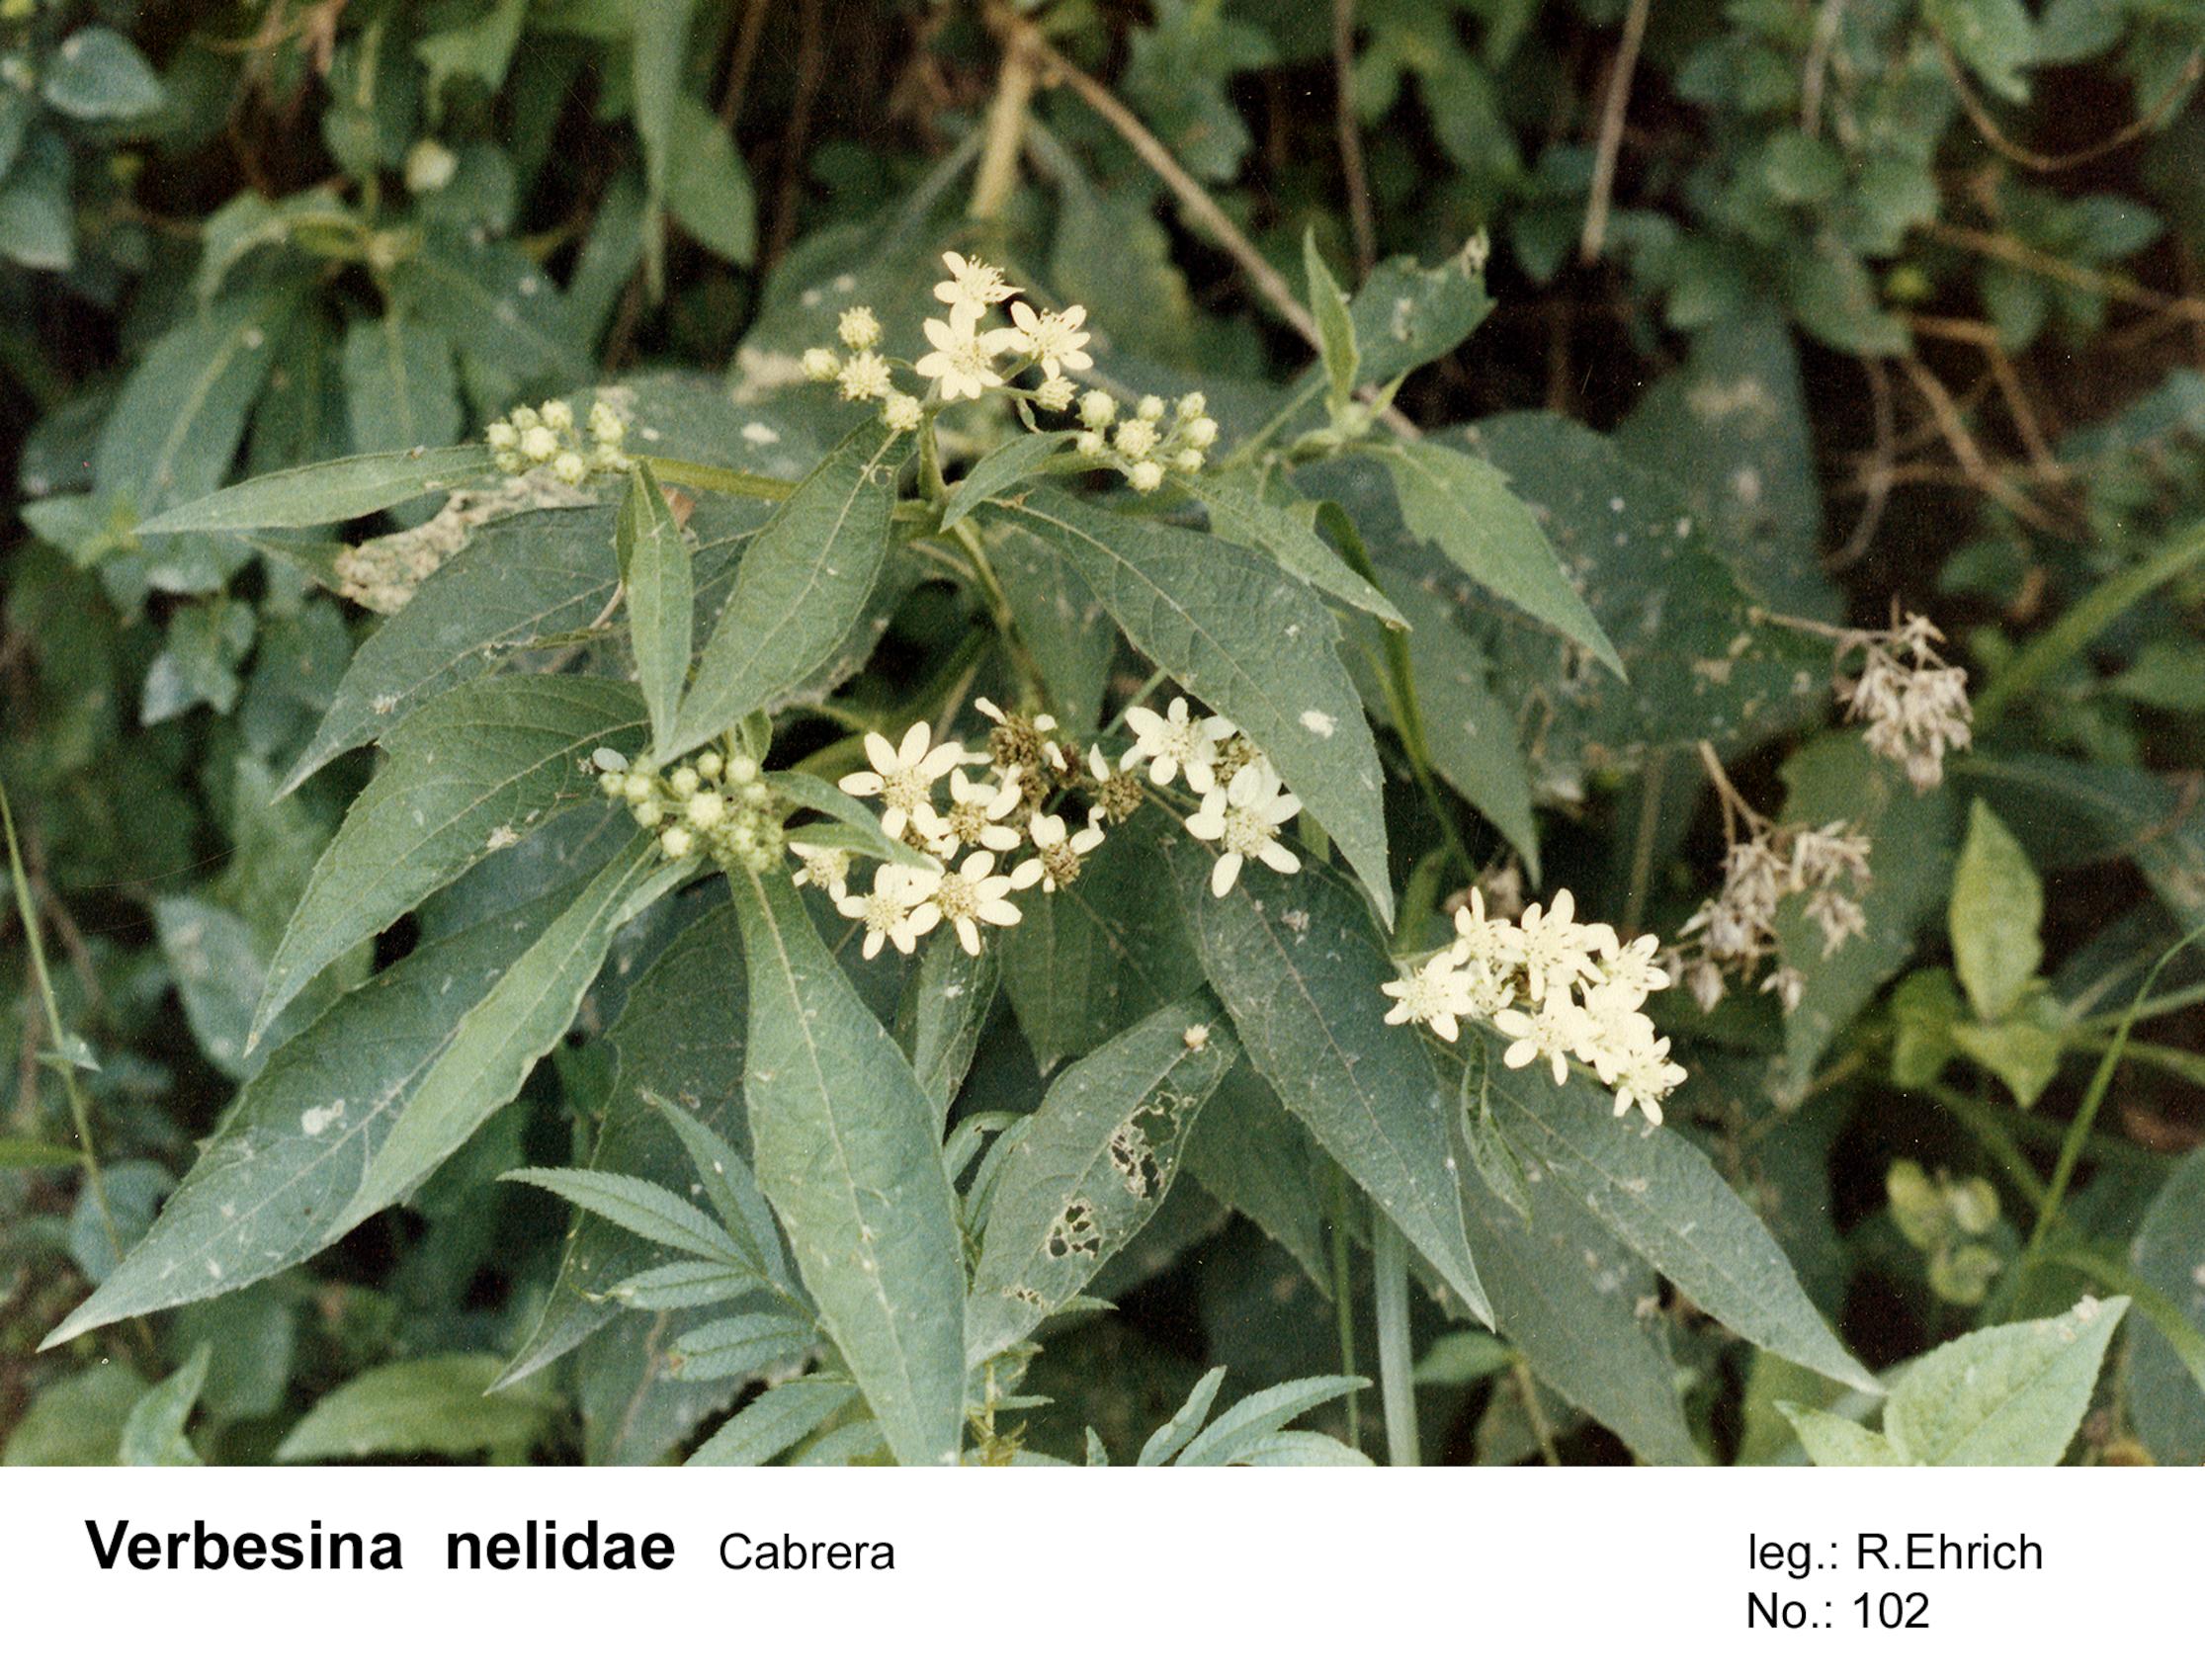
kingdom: Plantae
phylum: Tracheophyta
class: Magnoliopsida
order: Asterales
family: Asteraceae
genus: Verbesina
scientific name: Verbesina macrophylla
